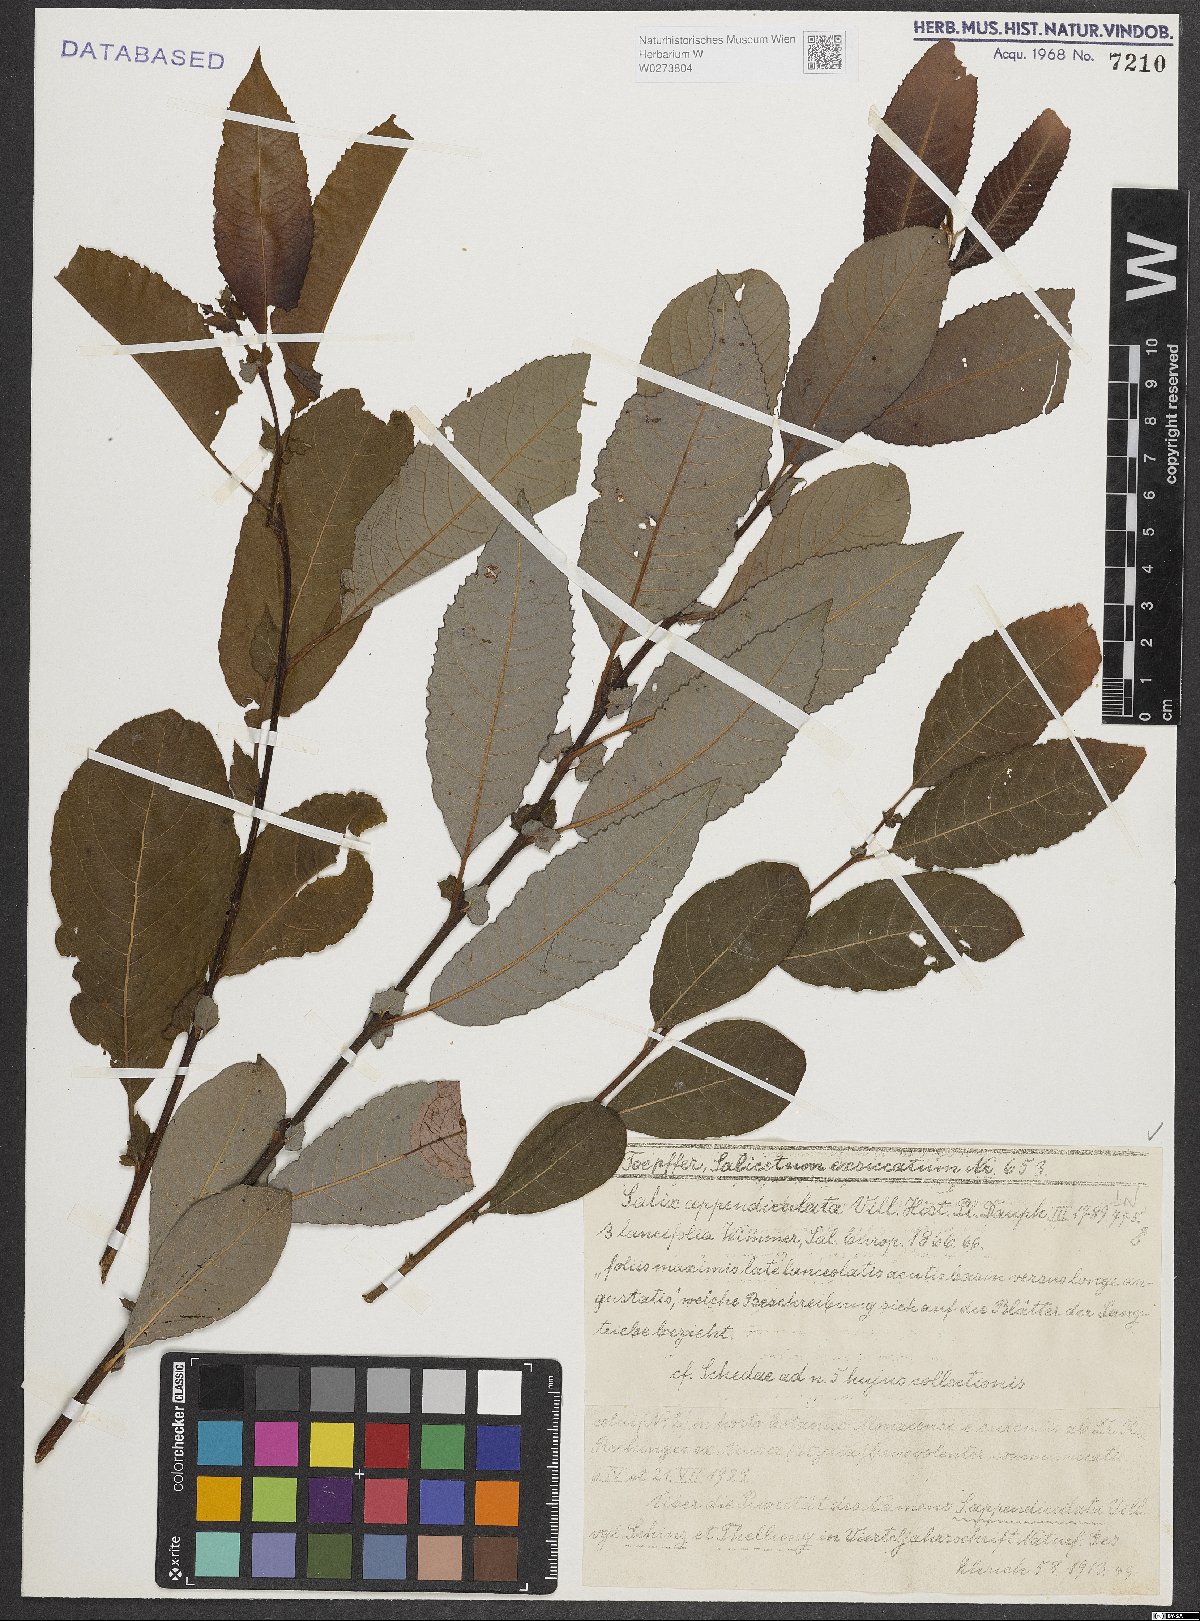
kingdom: Plantae
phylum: Tracheophyta
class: Magnoliopsida
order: Malpighiales
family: Salicaceae
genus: Salix
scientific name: Salix appendiculata
